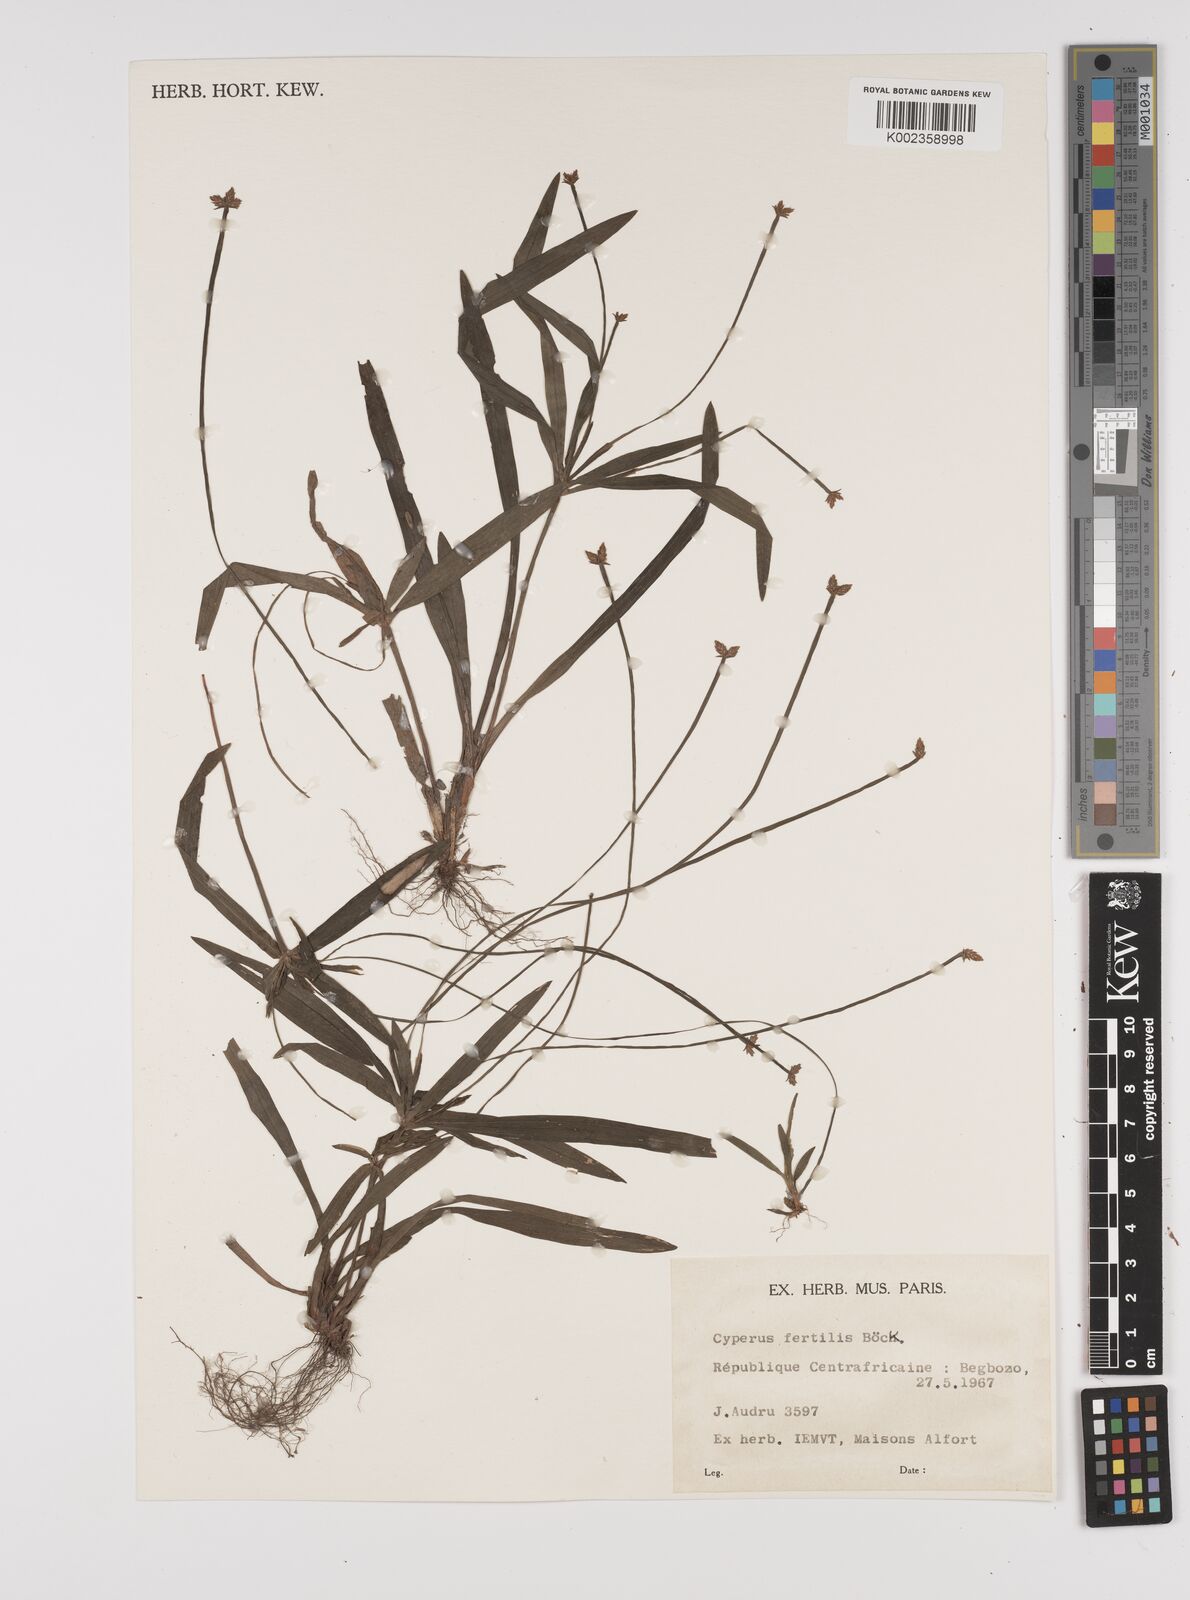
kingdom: Plantae
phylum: Tracheophyta
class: Liliopsida
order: Poales
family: Cyperaceae
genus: Cyperus
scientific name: Cyperus fertilis
